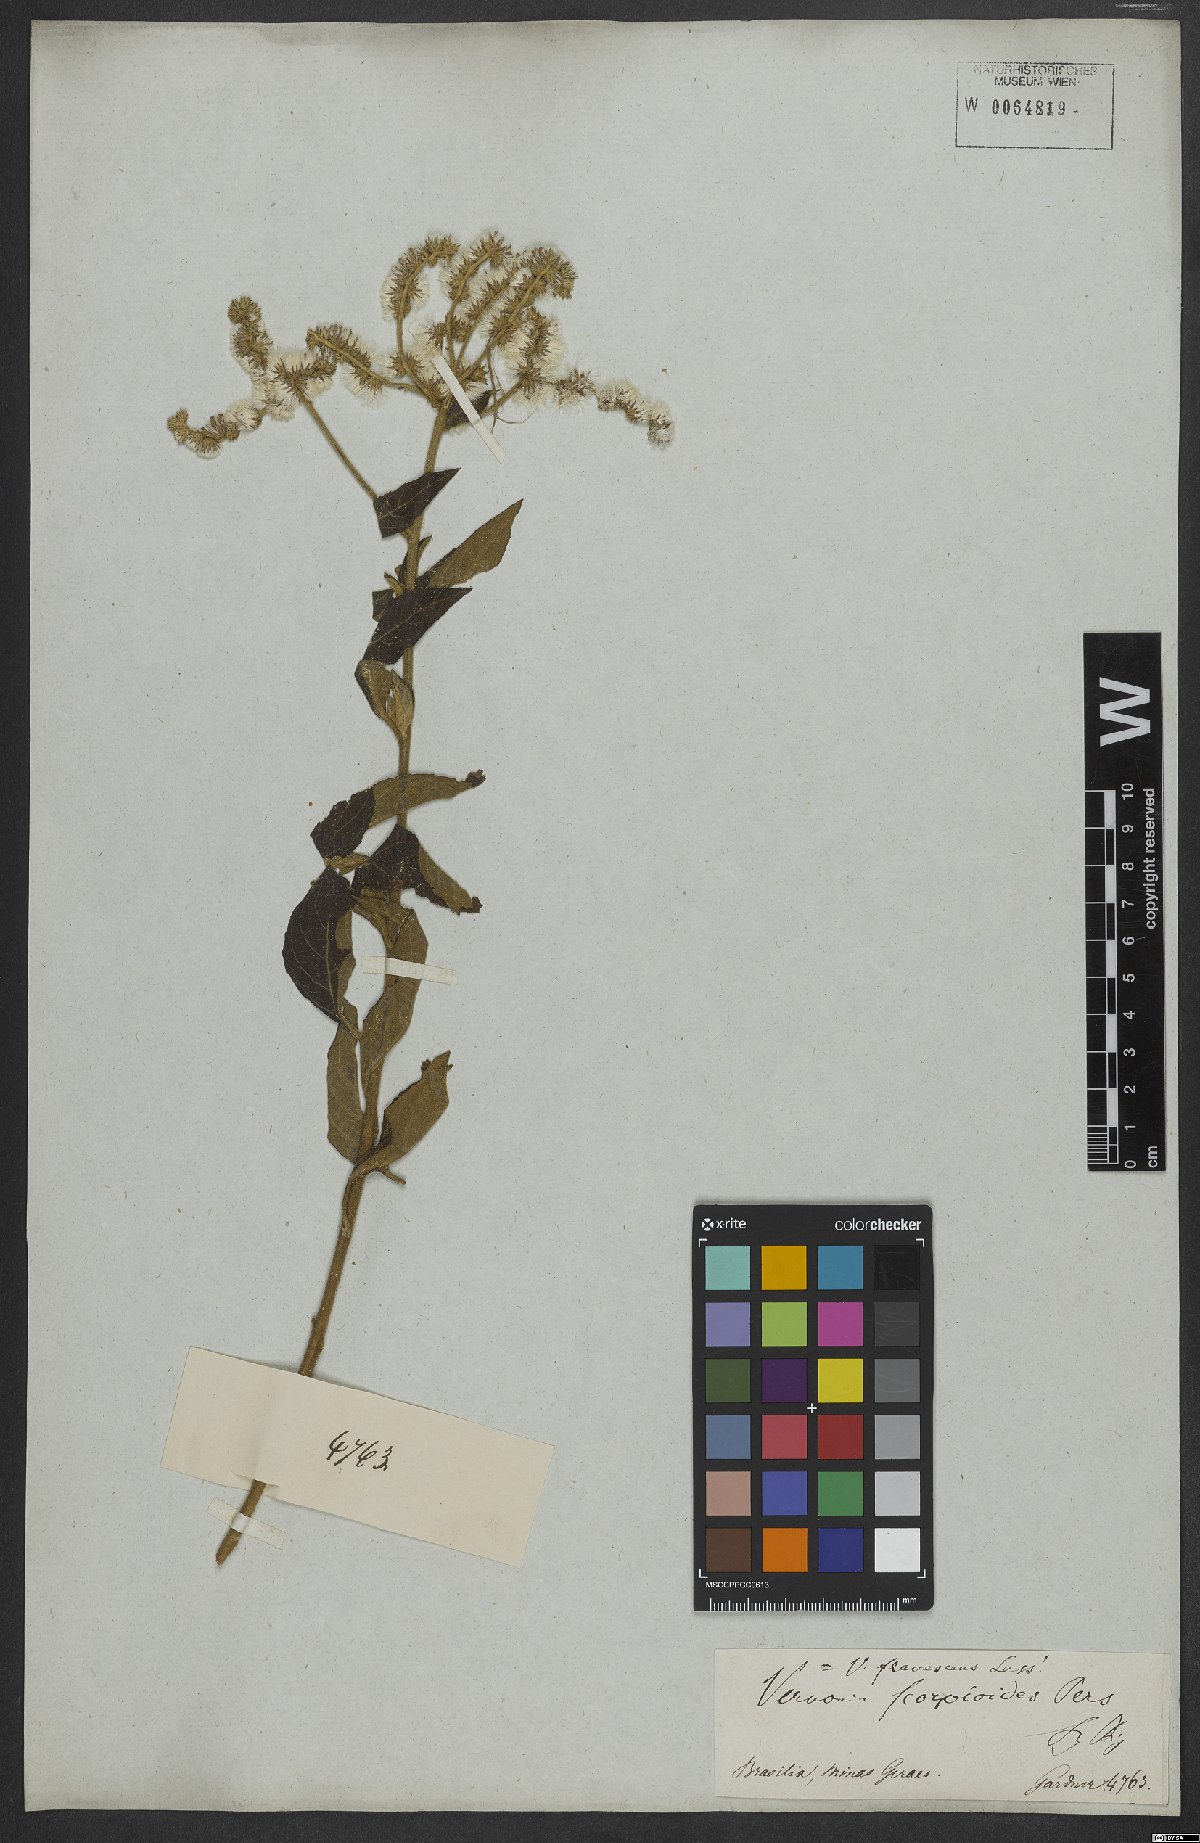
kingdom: Plantae
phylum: Tracheophyta
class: Magnoliopsida
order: Asterales
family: Asteraceae
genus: Cyrtocymura
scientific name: Cyrtocymura scorpioides
